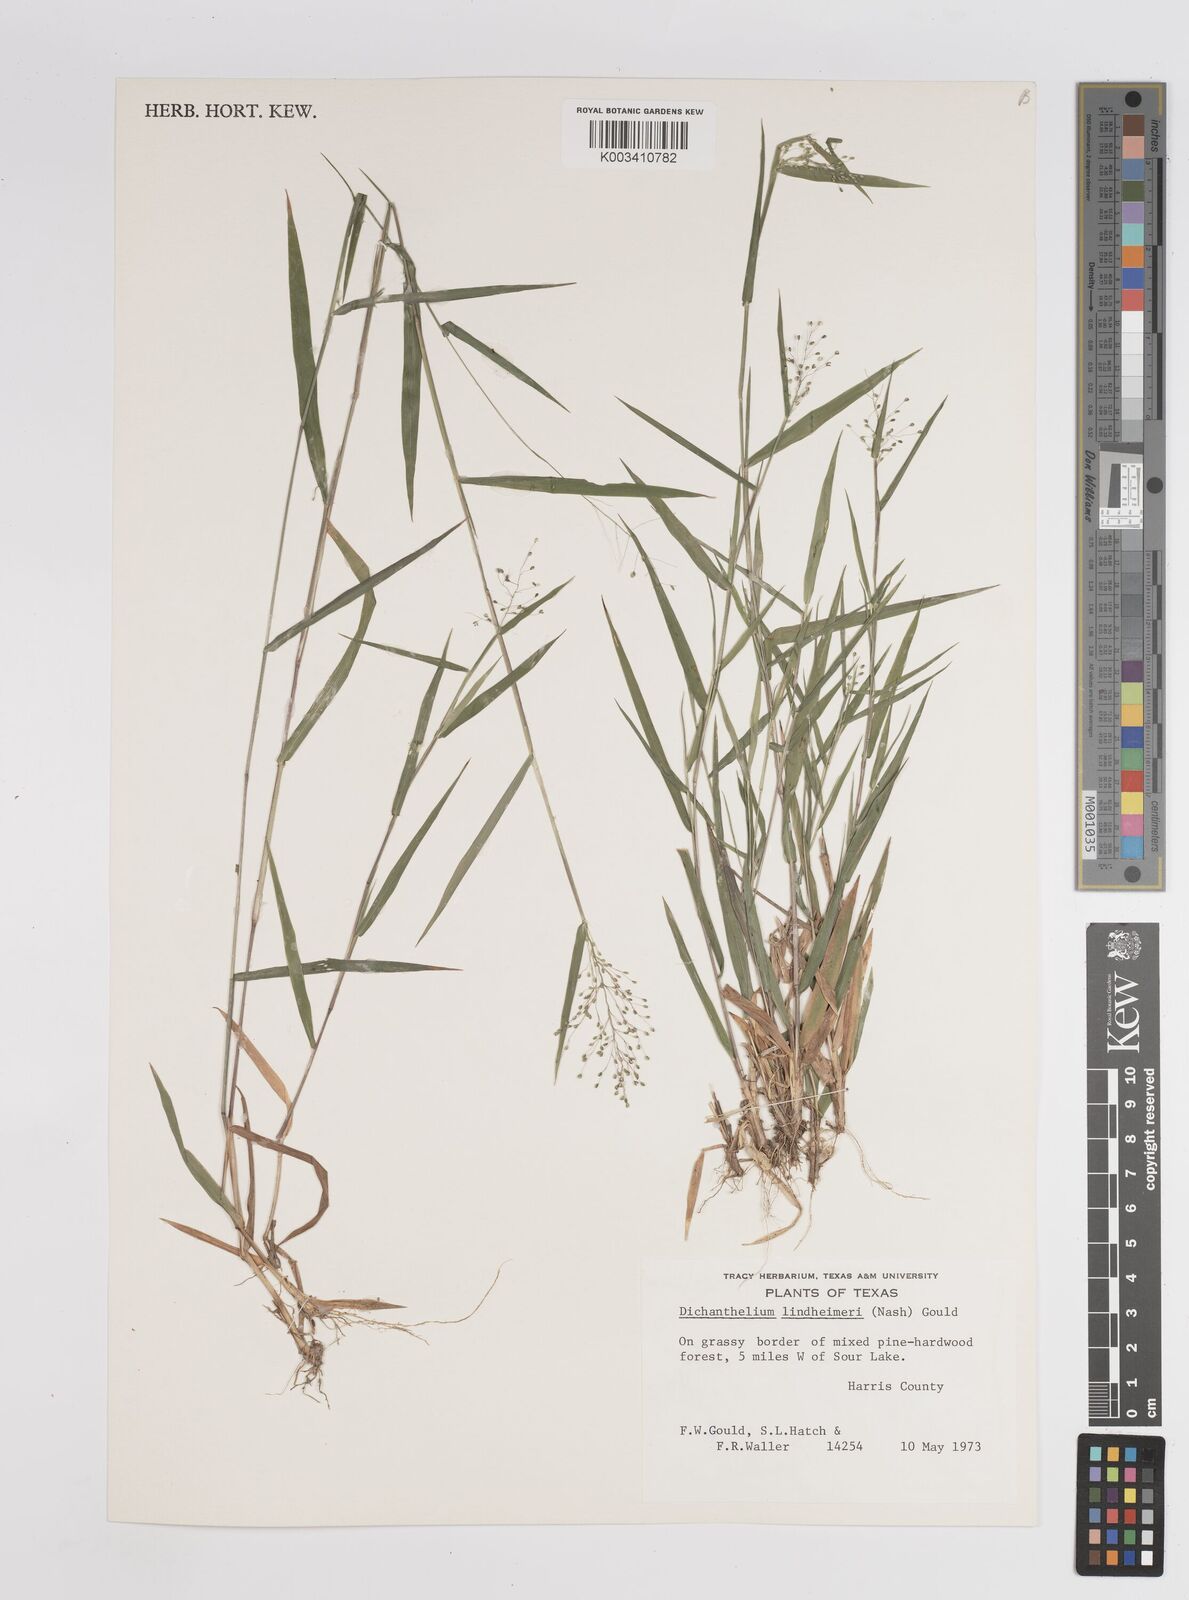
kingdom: Plantae
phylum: Tracheophyta
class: Liliopsida
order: Poales
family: Poaceae
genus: Dichanthelium
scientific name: Dichanthelium acuminatum
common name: Hairy panic grass
